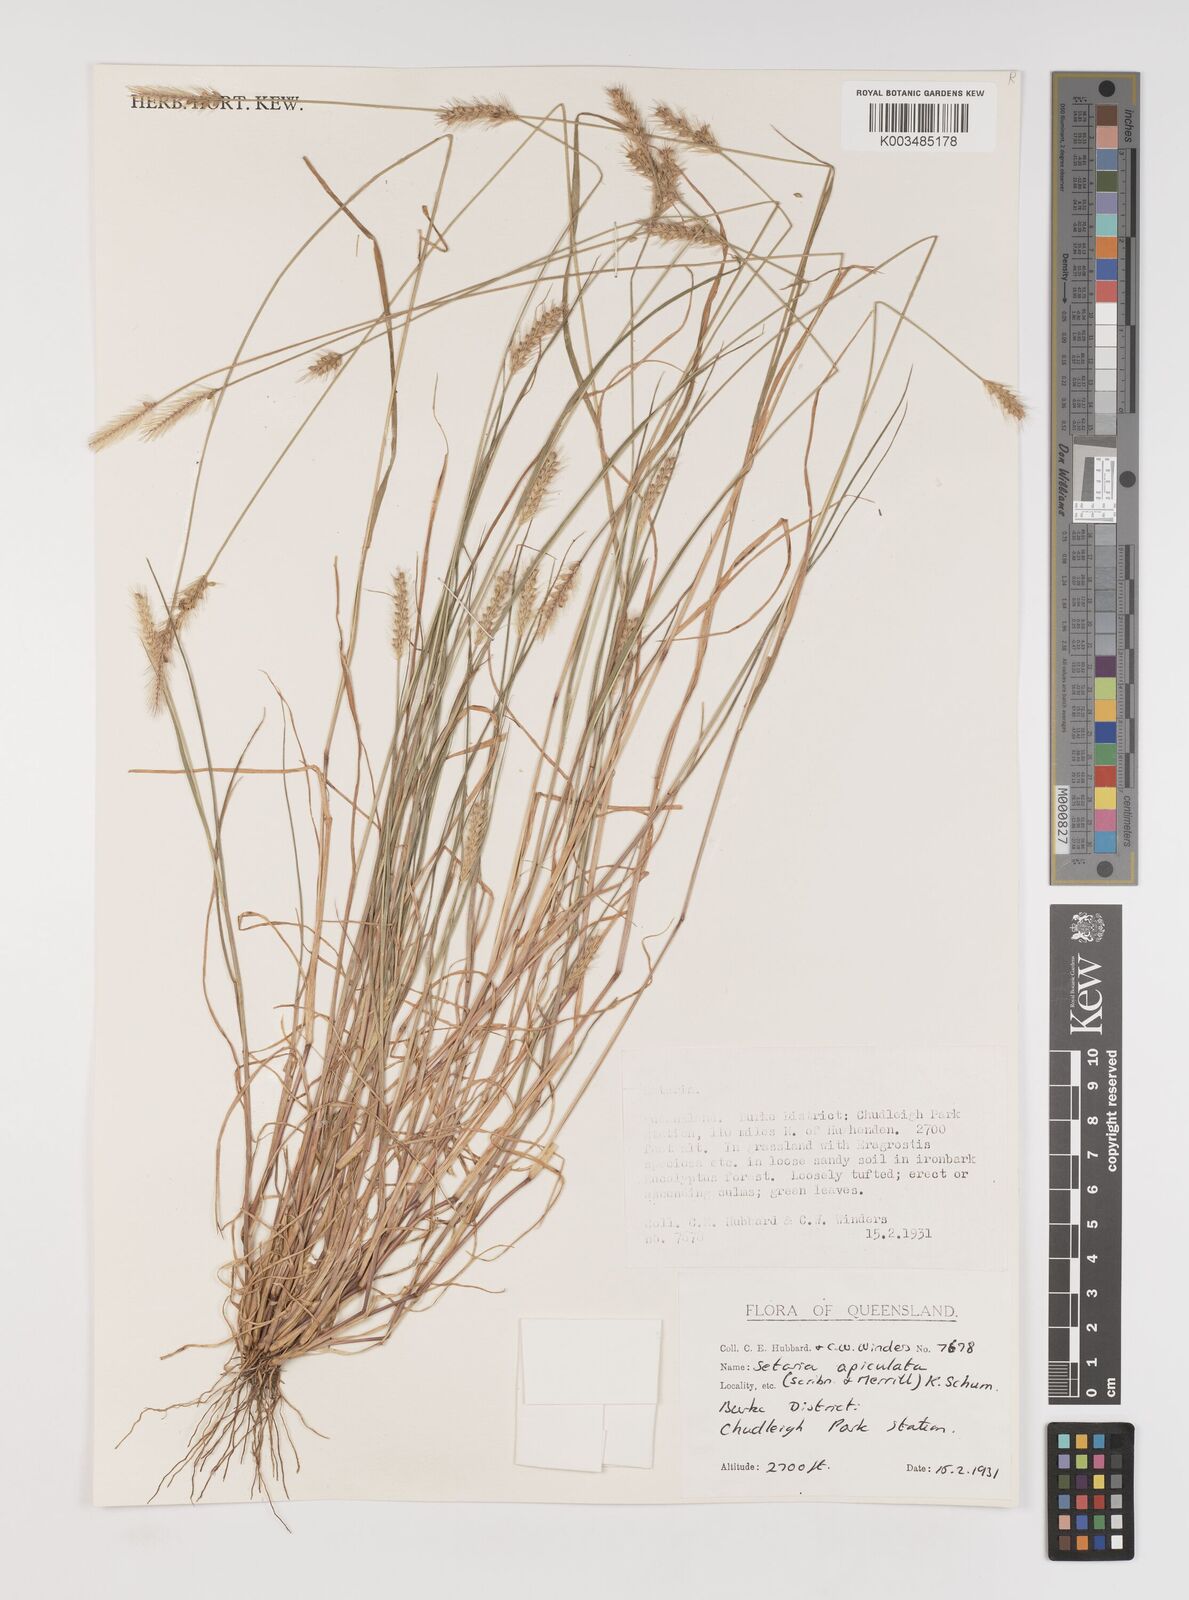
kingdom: Plantae
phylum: Tracheophyta
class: Liliopsida
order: Poales
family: Poaceae
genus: Setaria
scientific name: Setaria apiculata
